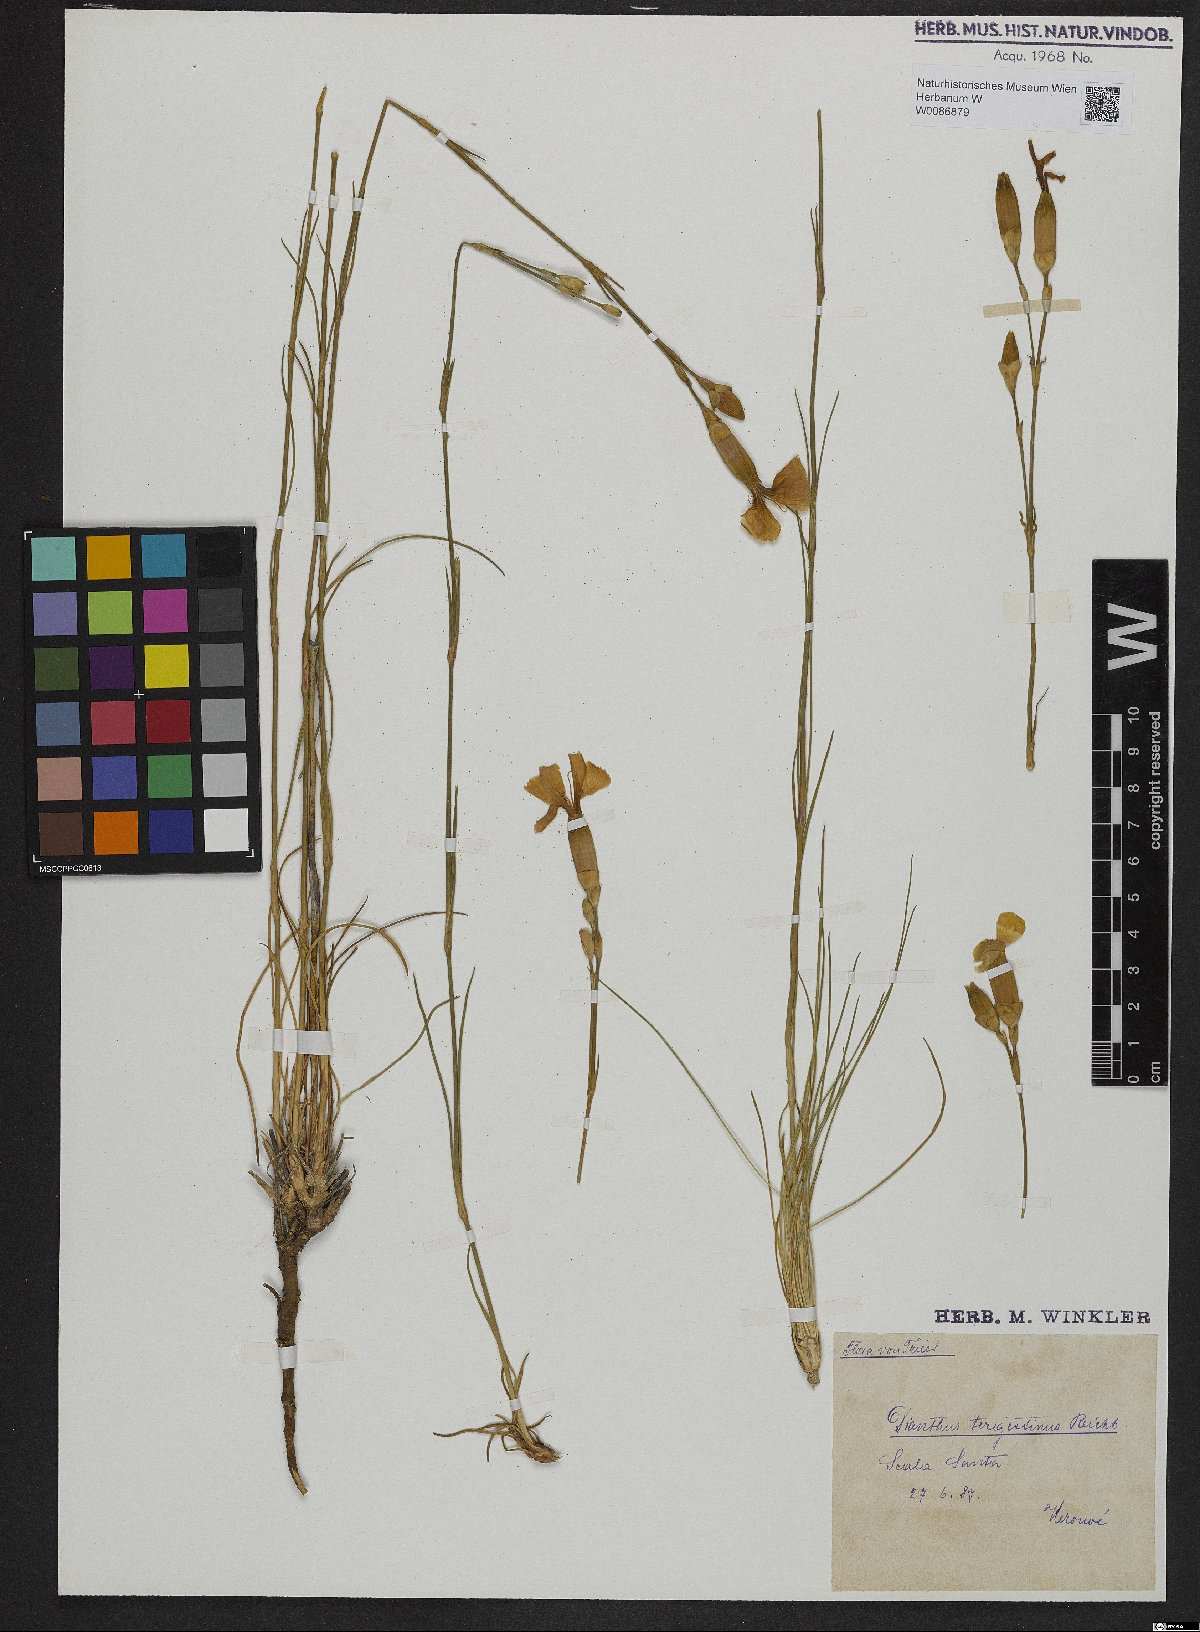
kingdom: Plantae
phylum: Tracheophyta
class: Magnoliopsida
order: Caryophyllales
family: Caryophyllaceae
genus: Dianthus
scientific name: Dianthus sylvestris
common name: Wood pink
